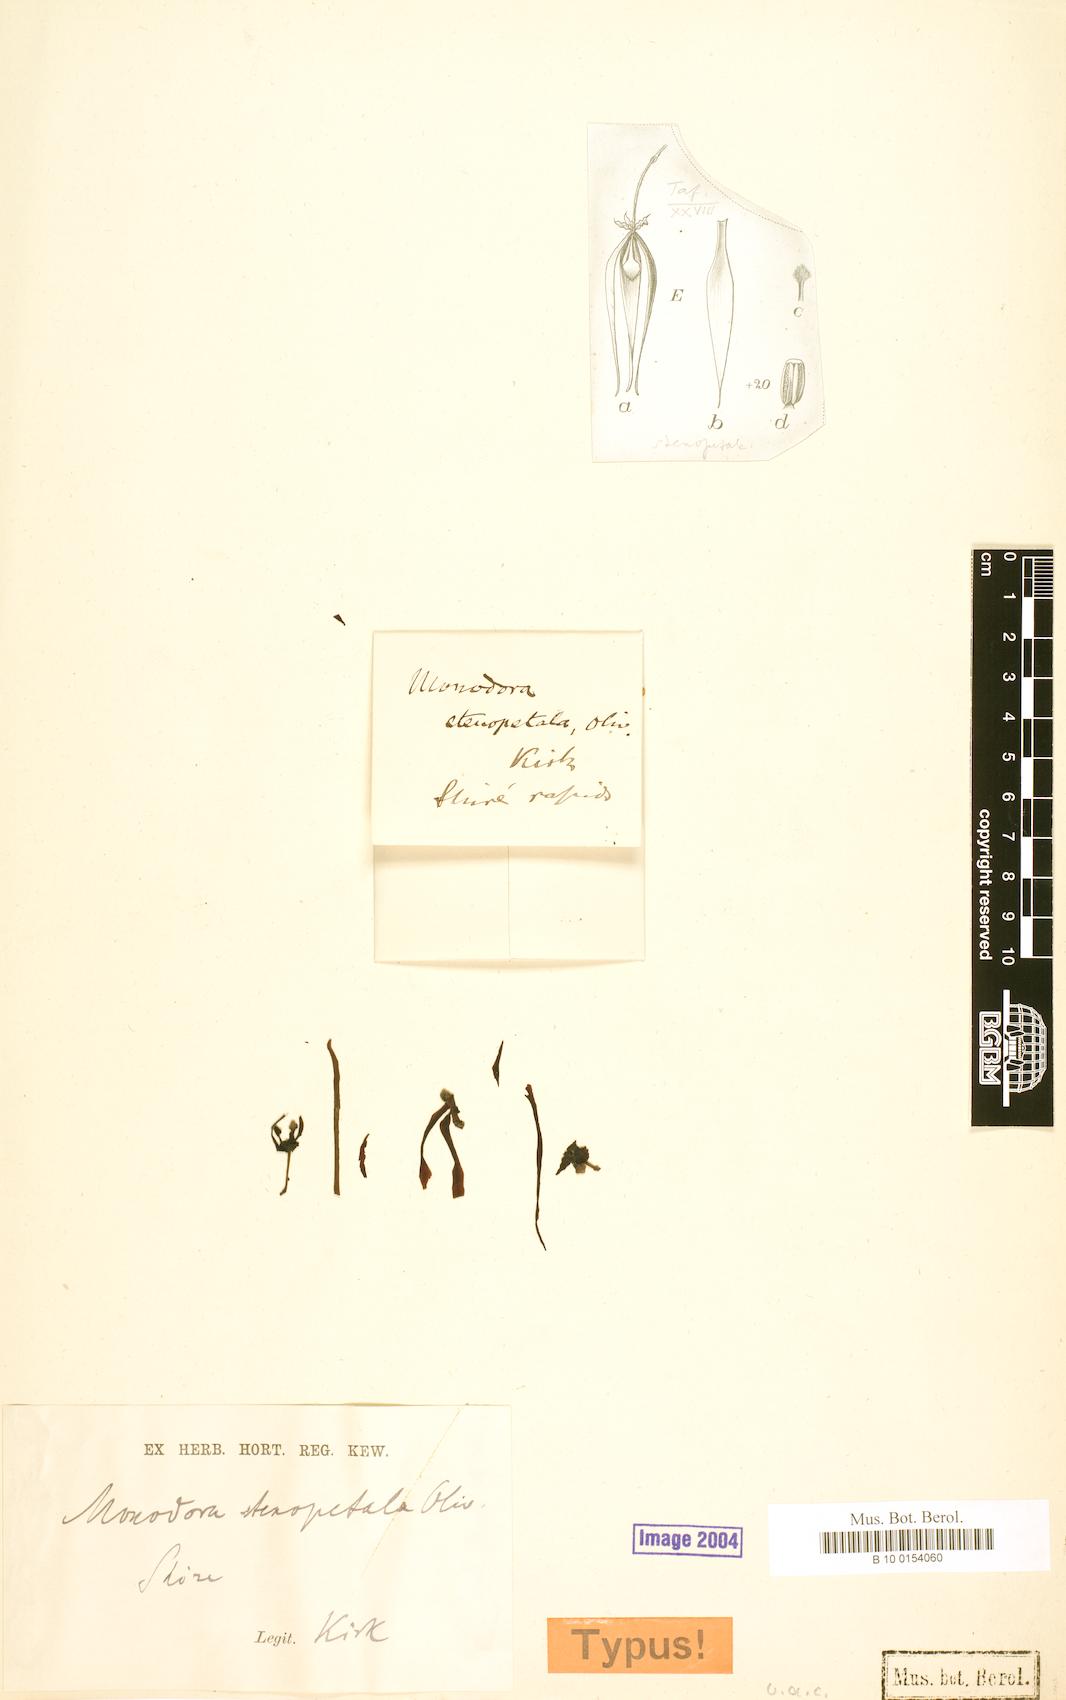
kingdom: Plantae
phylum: Tracheophyta
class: Magnoliopsida
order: Magnoliales
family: Annonaceae
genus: Monodora
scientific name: Monodora stenopetala
